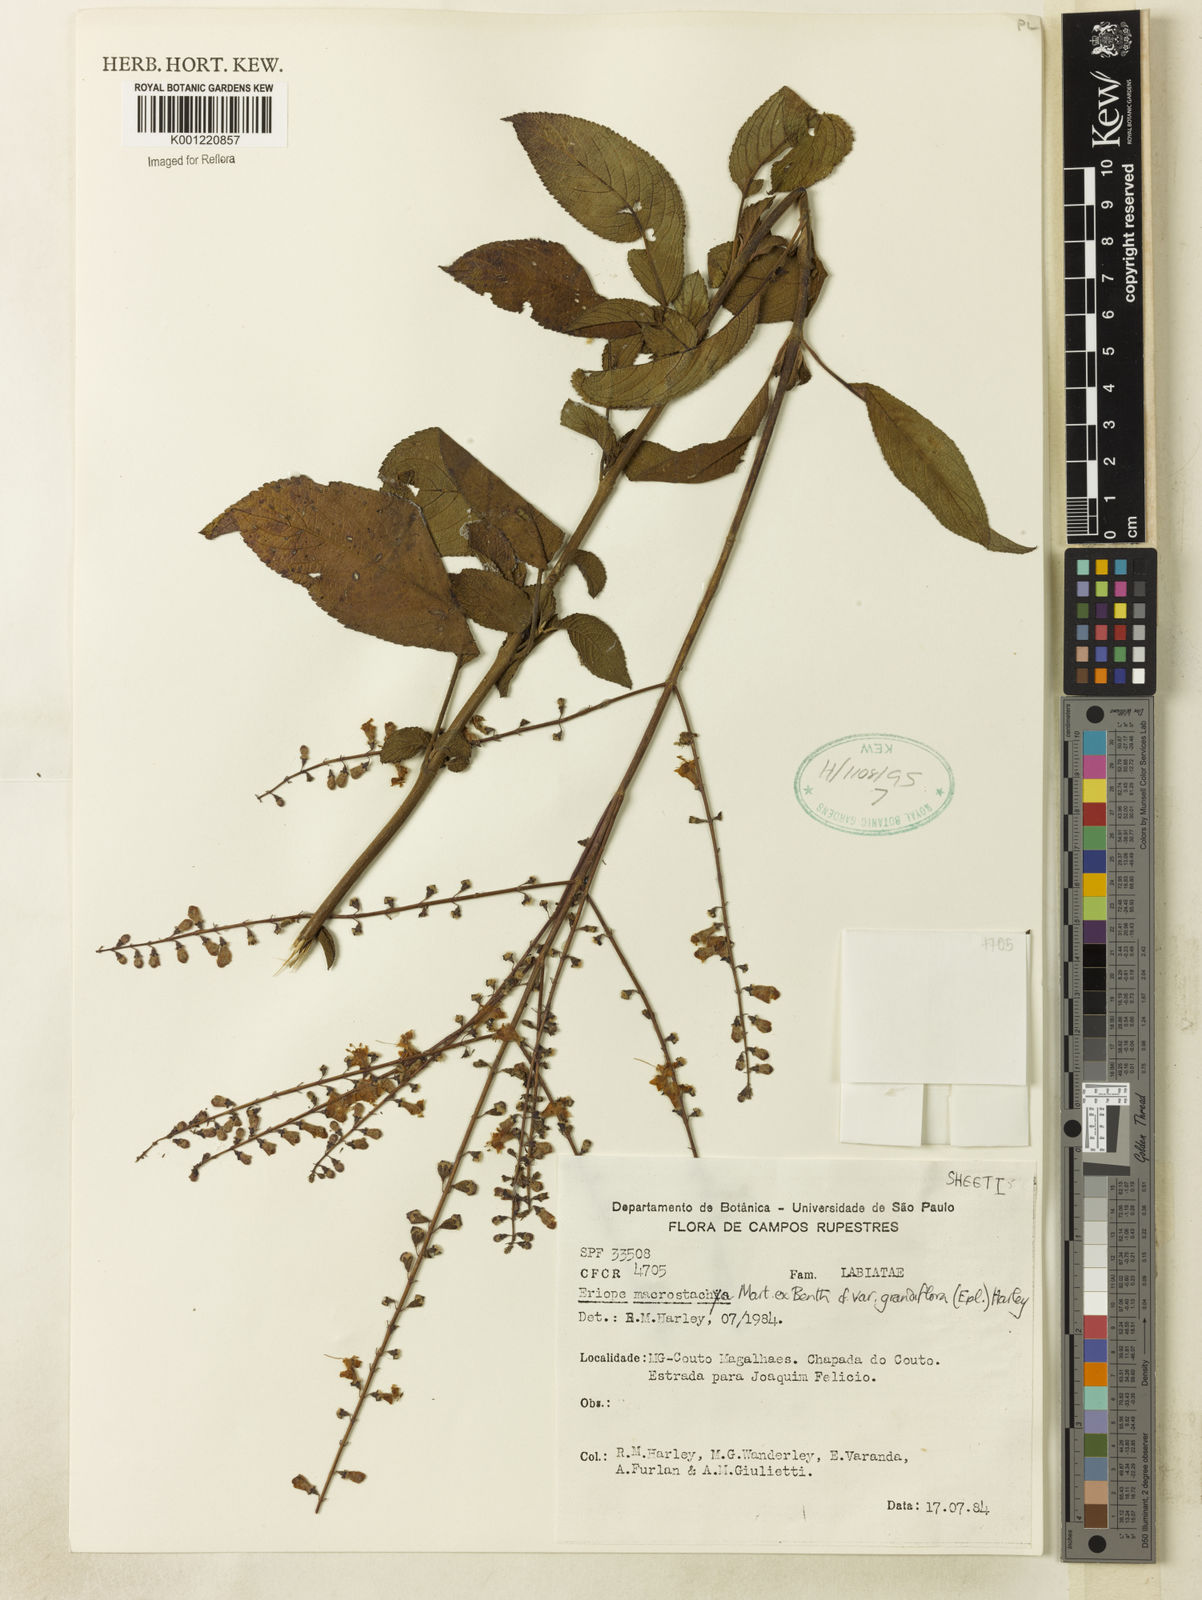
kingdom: Plantae
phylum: Tracheophyta
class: Magnoliopsida
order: Lamiales
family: Lamiaceae
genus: Eriope
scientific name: Eriope macrostachya
